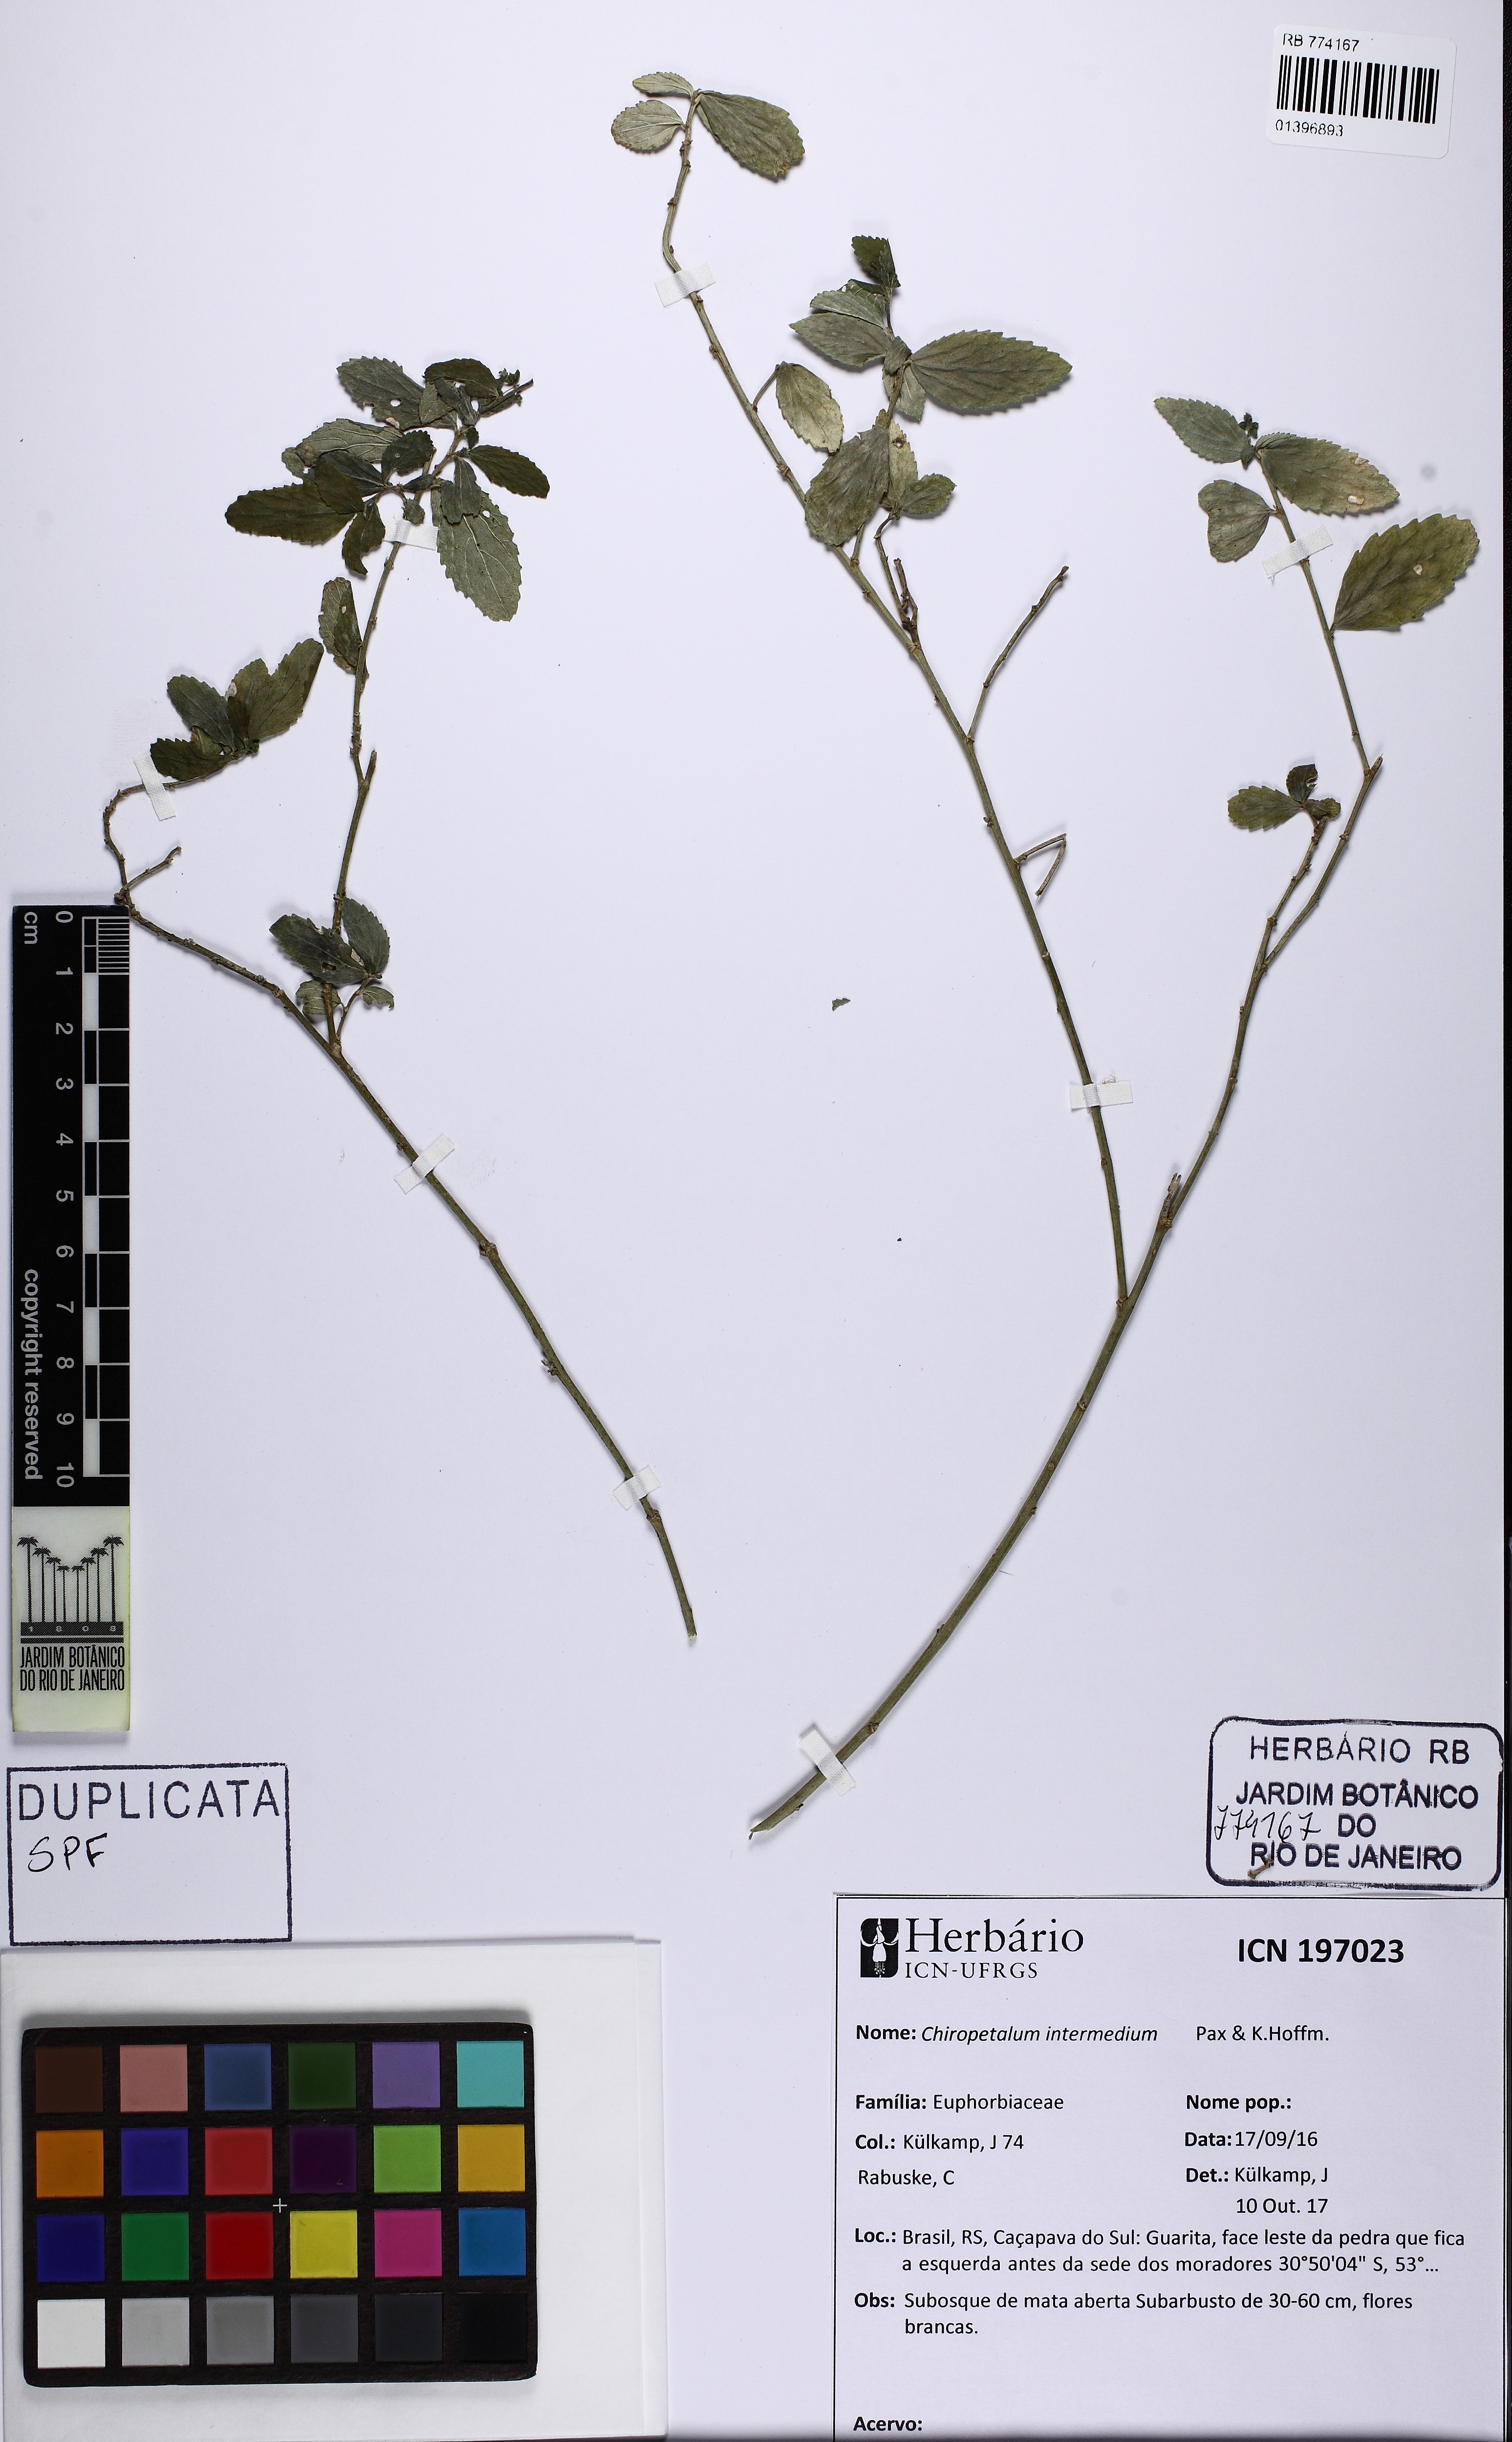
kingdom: Plantae
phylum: Tracheophyta
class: Magnoliopsida
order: Malpighiales
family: Euphorbiaceae
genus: Chiropetalum
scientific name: Chiropetalum intermedium
